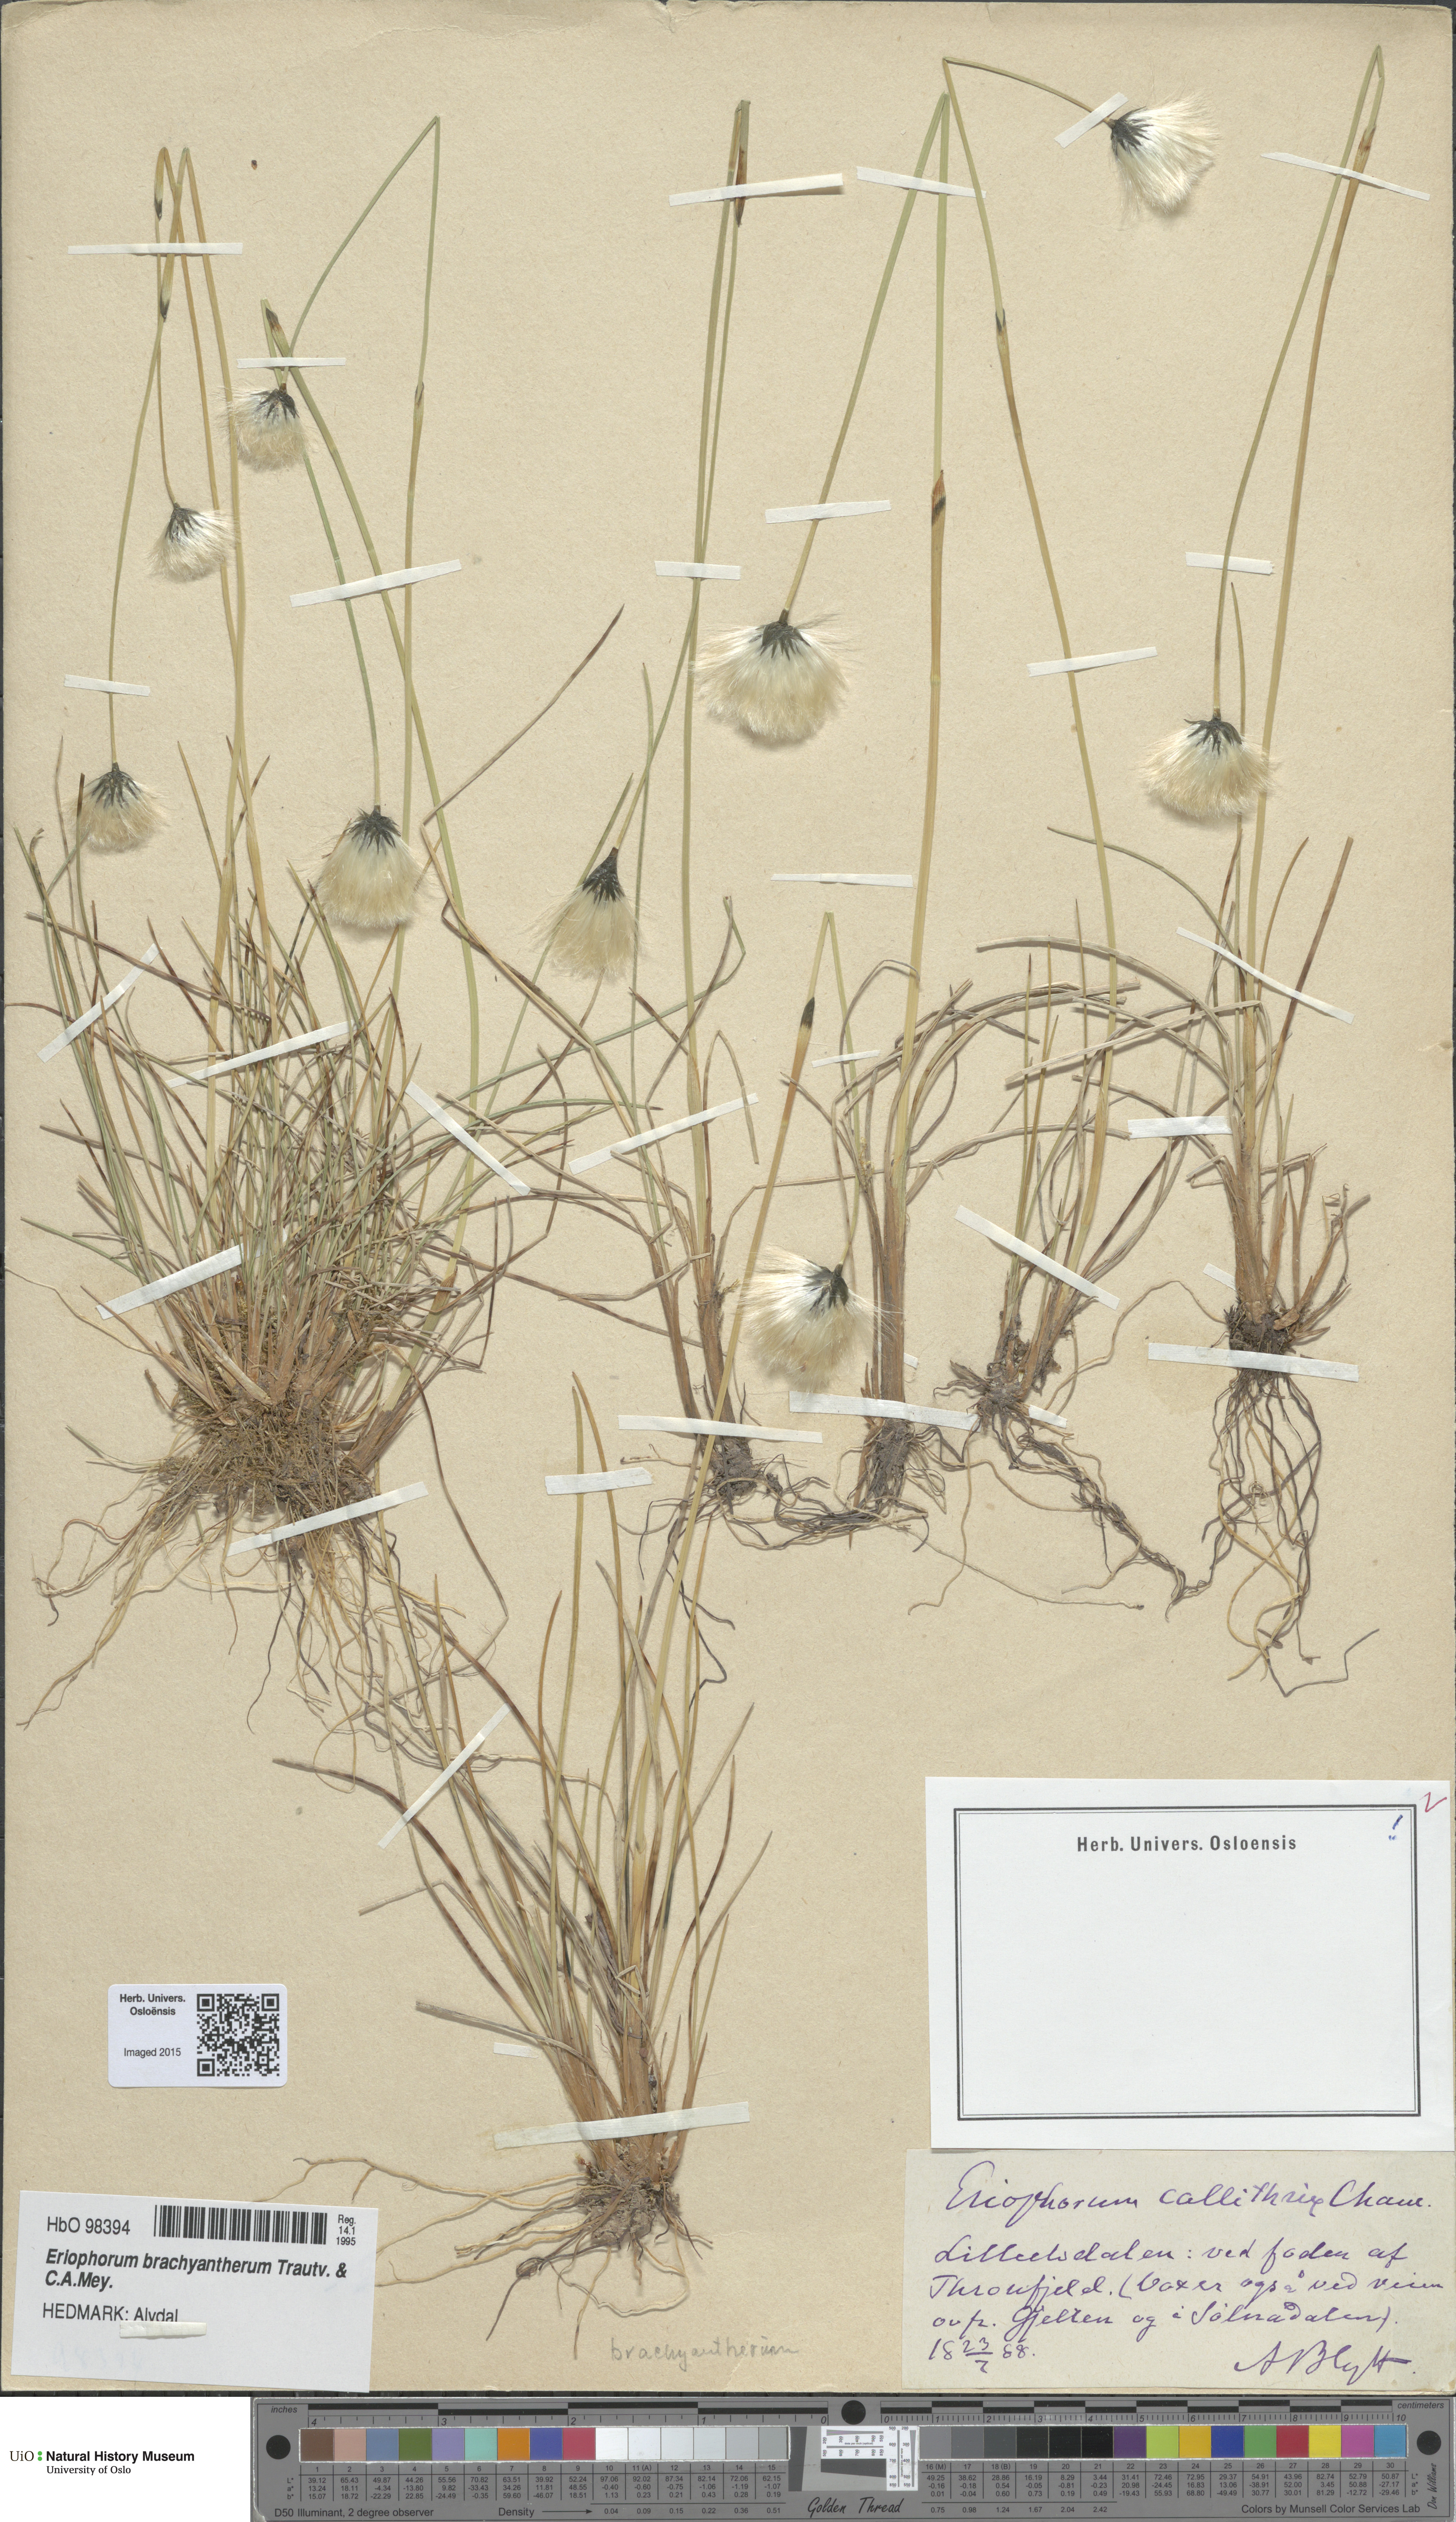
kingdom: Plantae
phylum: Tracheophyta
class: Liliopsida
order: Poales
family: Cyperaceae
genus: Eriophorum
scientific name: Eriophorum brachyantherum
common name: Closed-sheathed cottongrass
